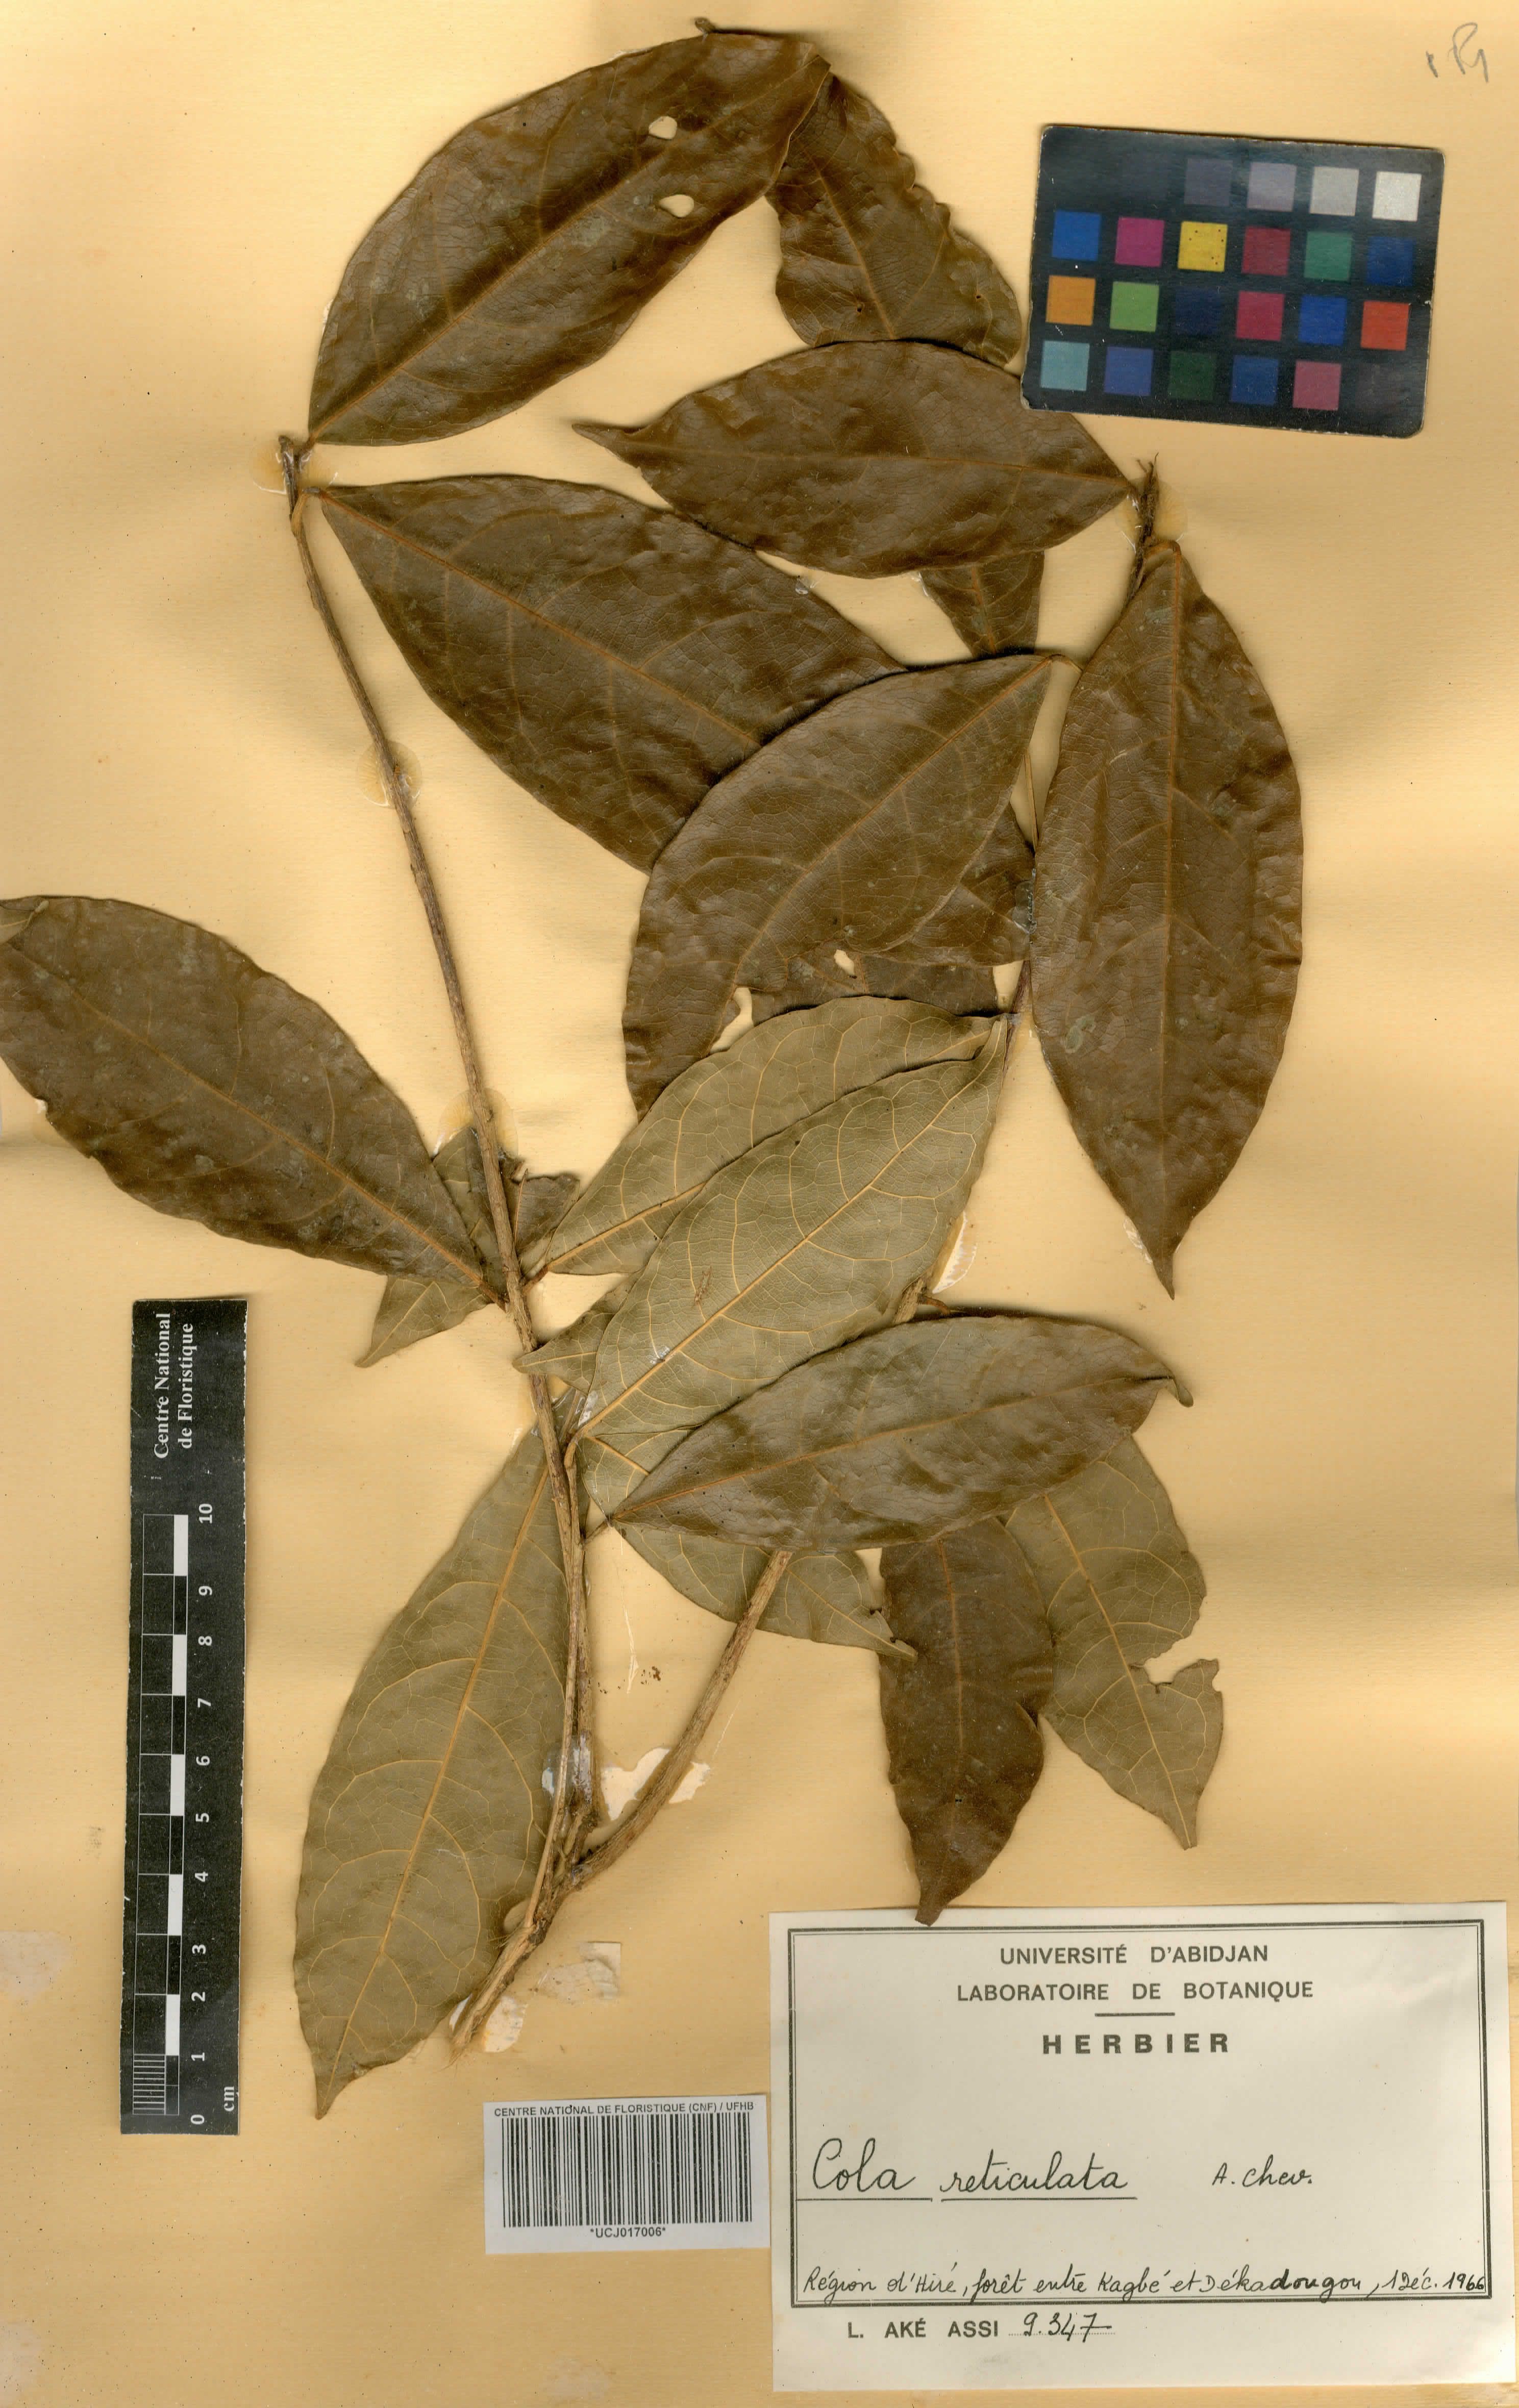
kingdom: Plantae
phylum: Tracheophyta
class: Magnoliopsida
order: Malvales
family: Malvaceae
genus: Cola
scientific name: Cola reticulata
